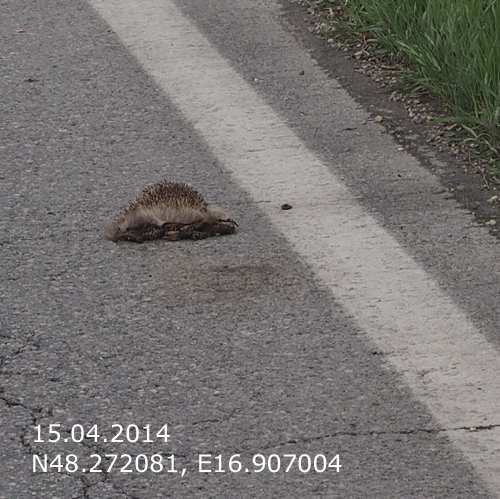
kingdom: Animalia
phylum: Chordata
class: Mammalia
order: Erinaceomorpha
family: Erinaceidae
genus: Erinaceus
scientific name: Erinaceus
